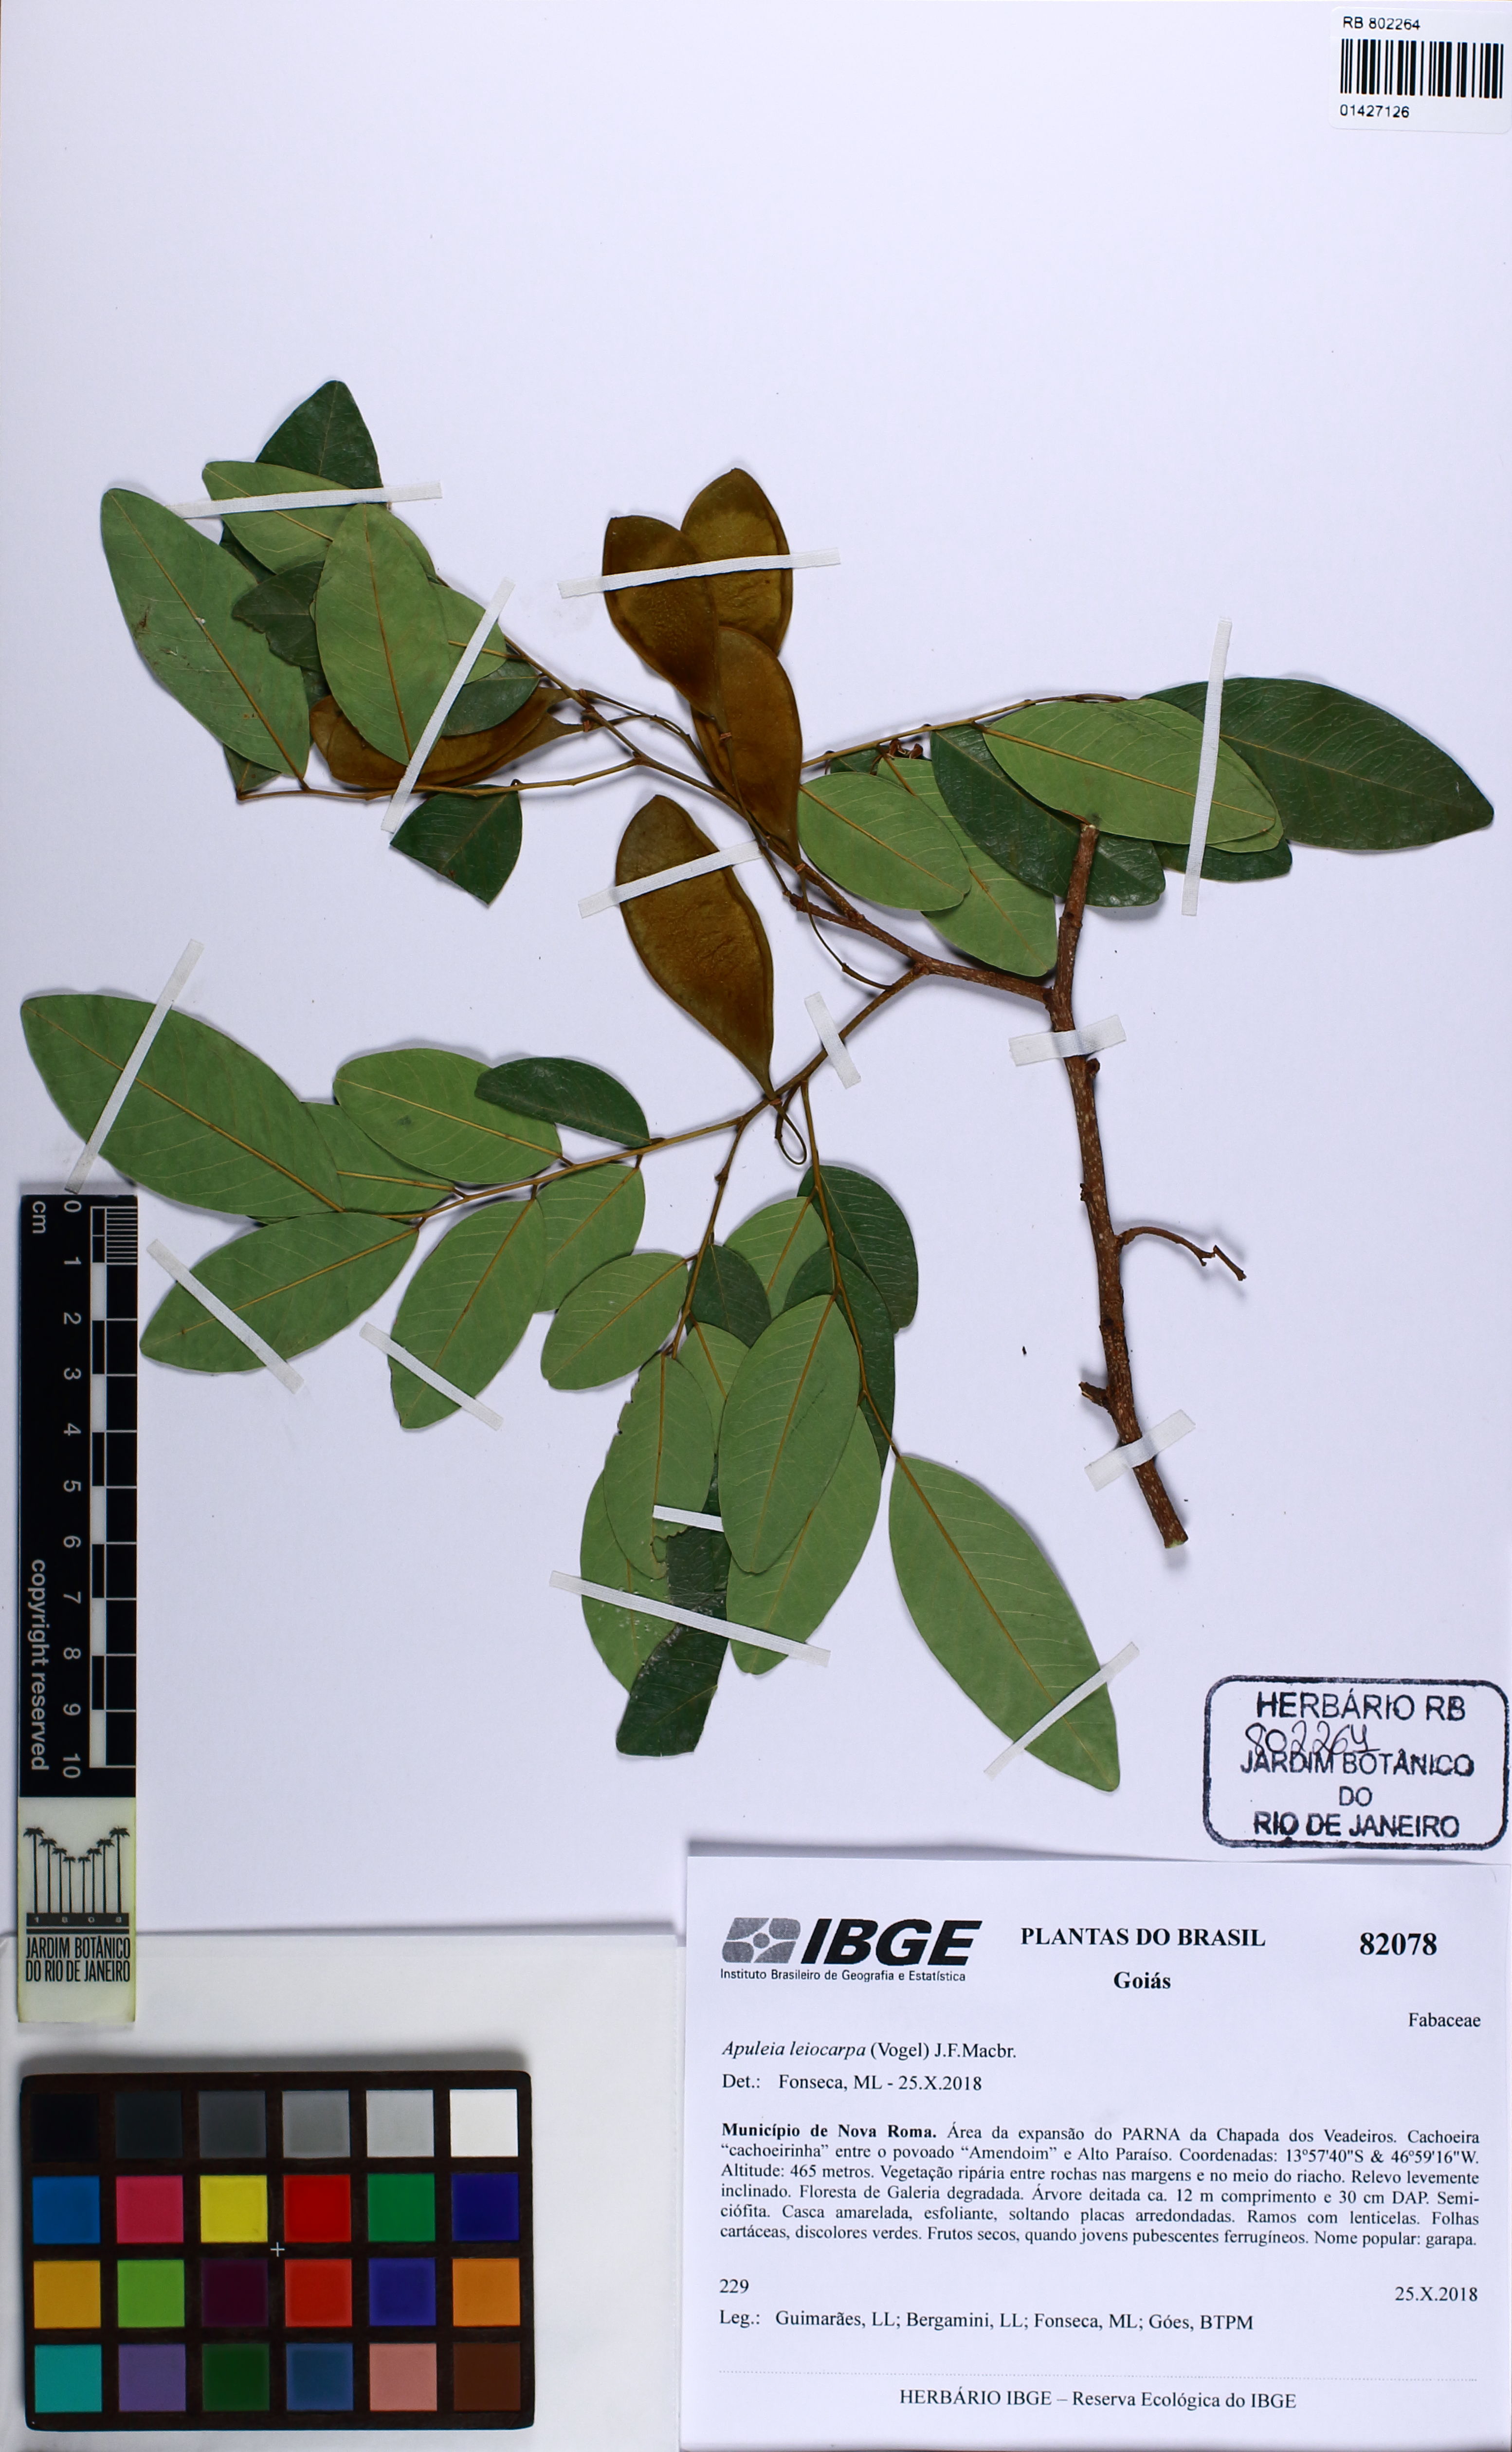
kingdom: Plantae
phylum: Tracheophyta
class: Magnoliopsida
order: Fabales
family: Fabaceae
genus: Apuleia
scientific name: Apuleia leiocarpa
